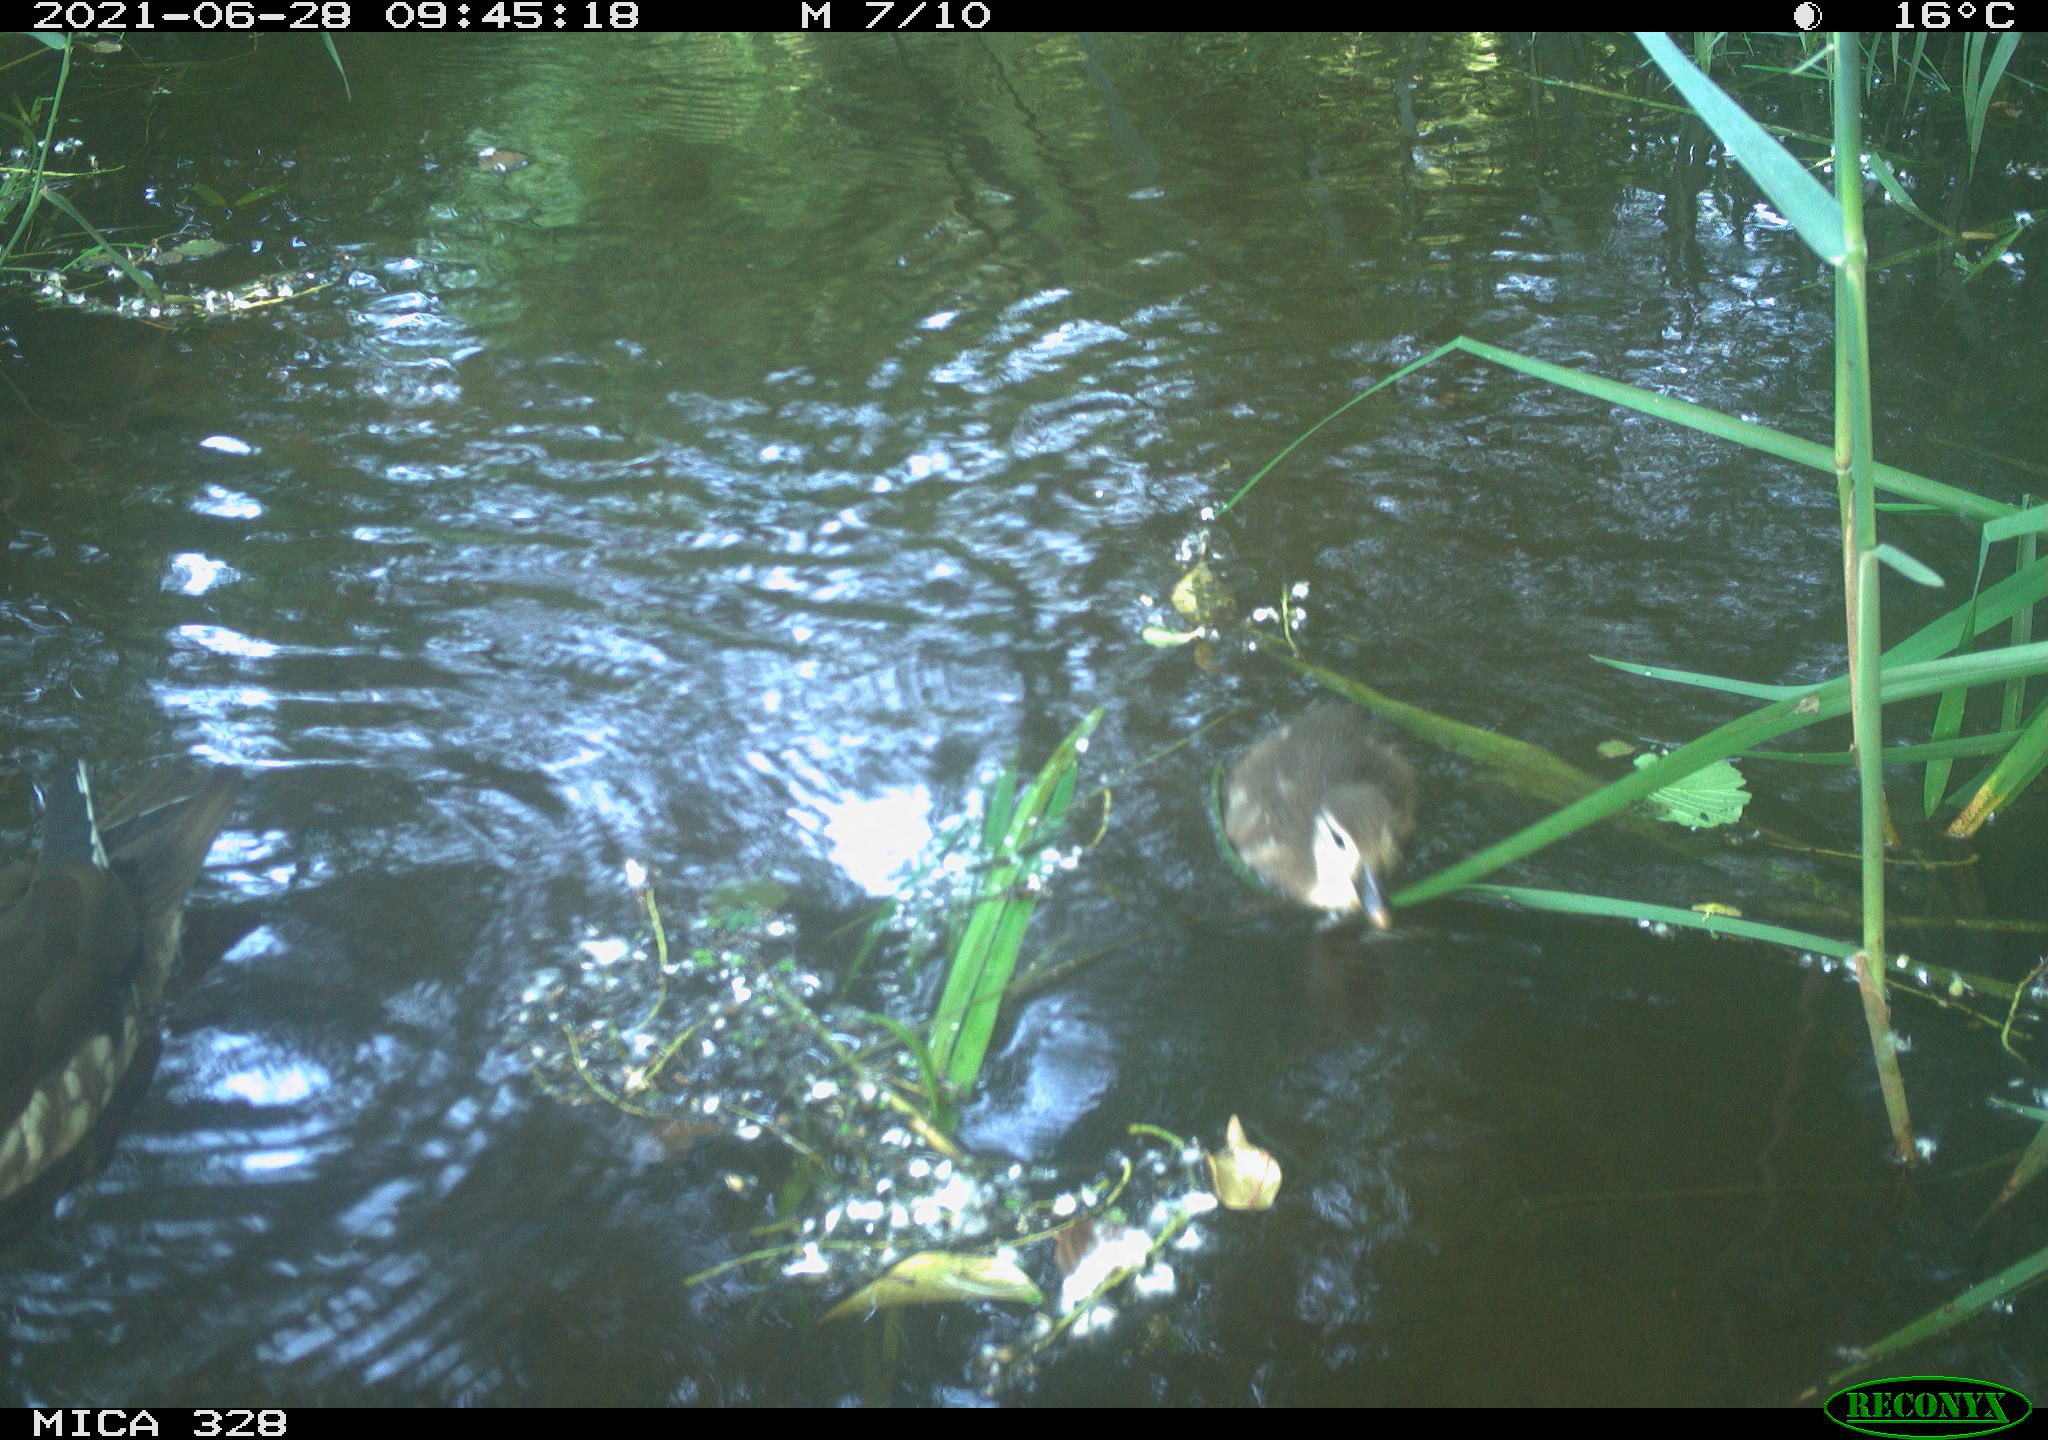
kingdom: Animalia
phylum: Chordata
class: Aves
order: Anseriformes
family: Anatidae
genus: Aix
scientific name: Aix galericulata
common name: Mandarin duck
